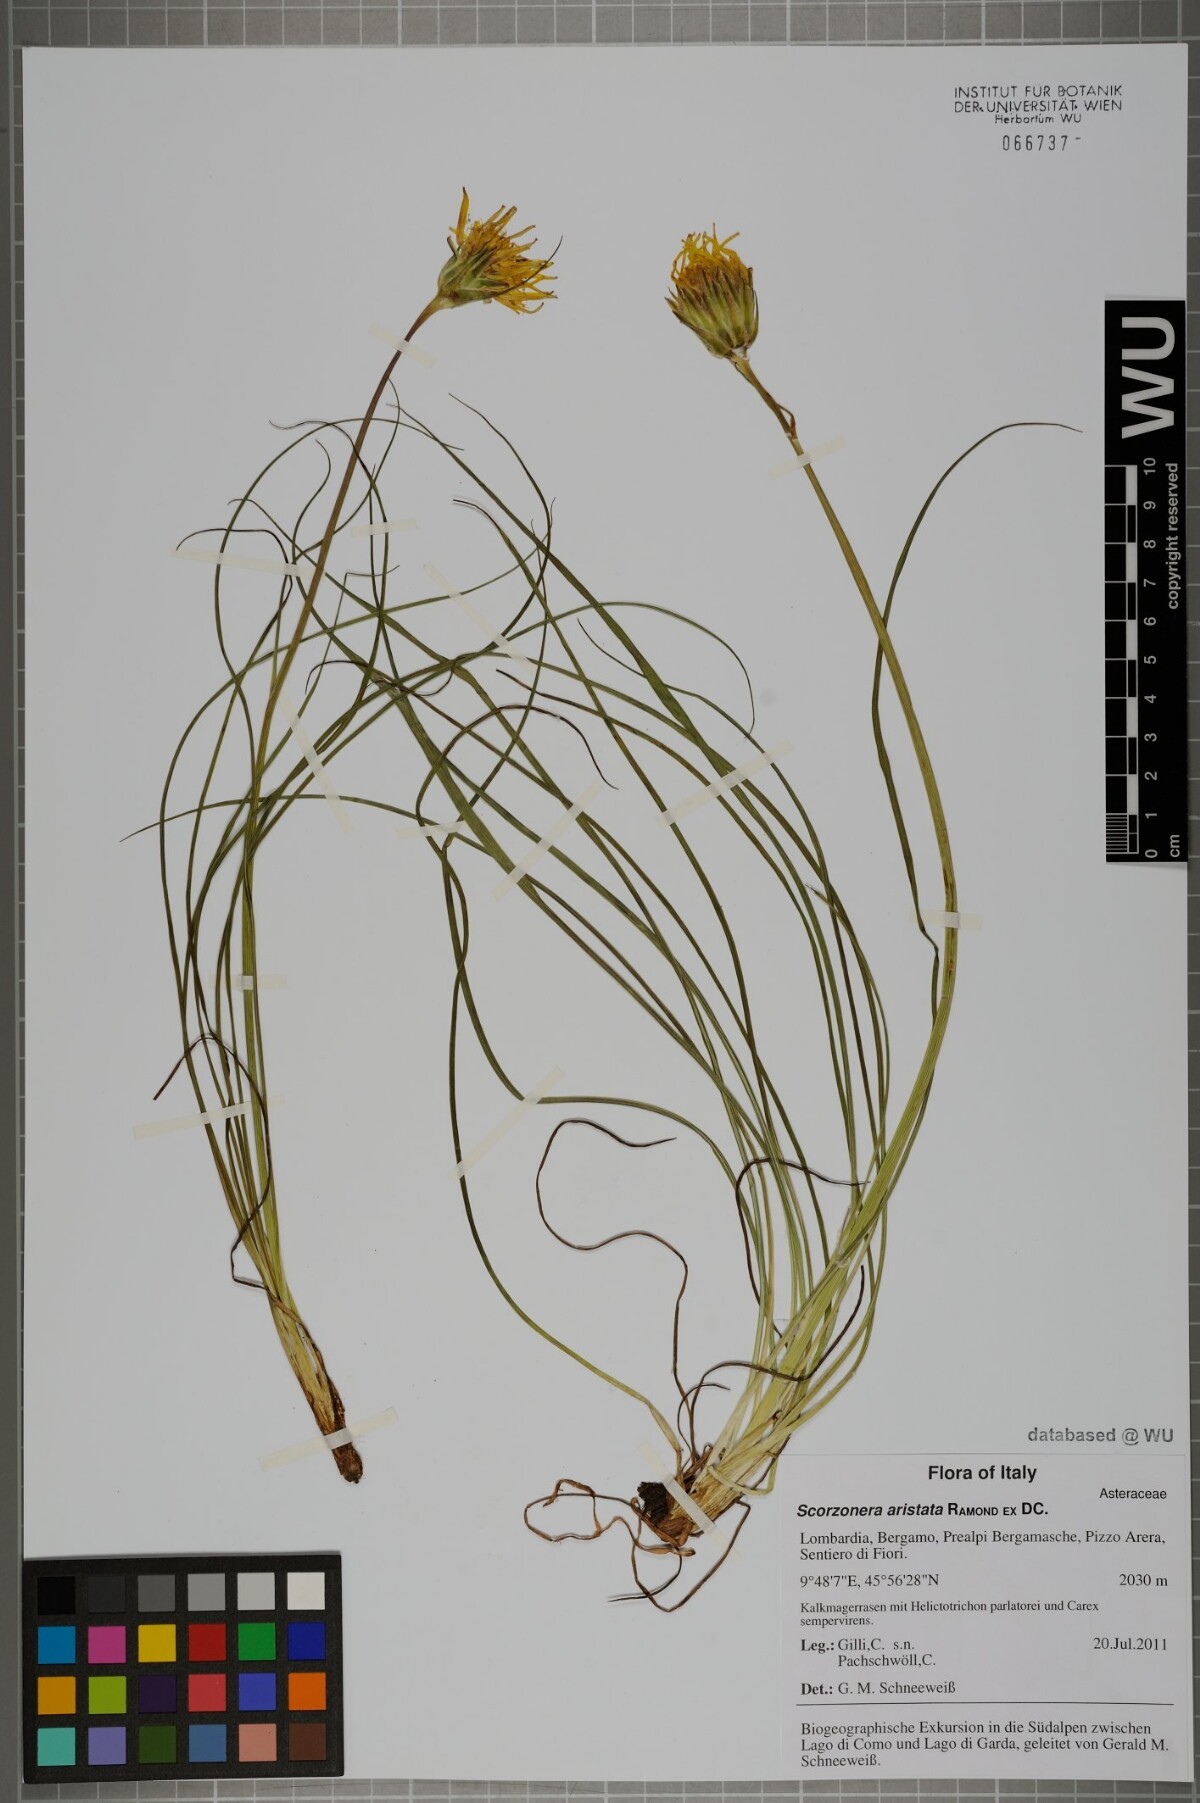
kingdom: Plantae
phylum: Tracheophyta
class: Magnoliopsida
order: Asterales
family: Asteraceae
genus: Scorzonera
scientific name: Scorzonera aristata
